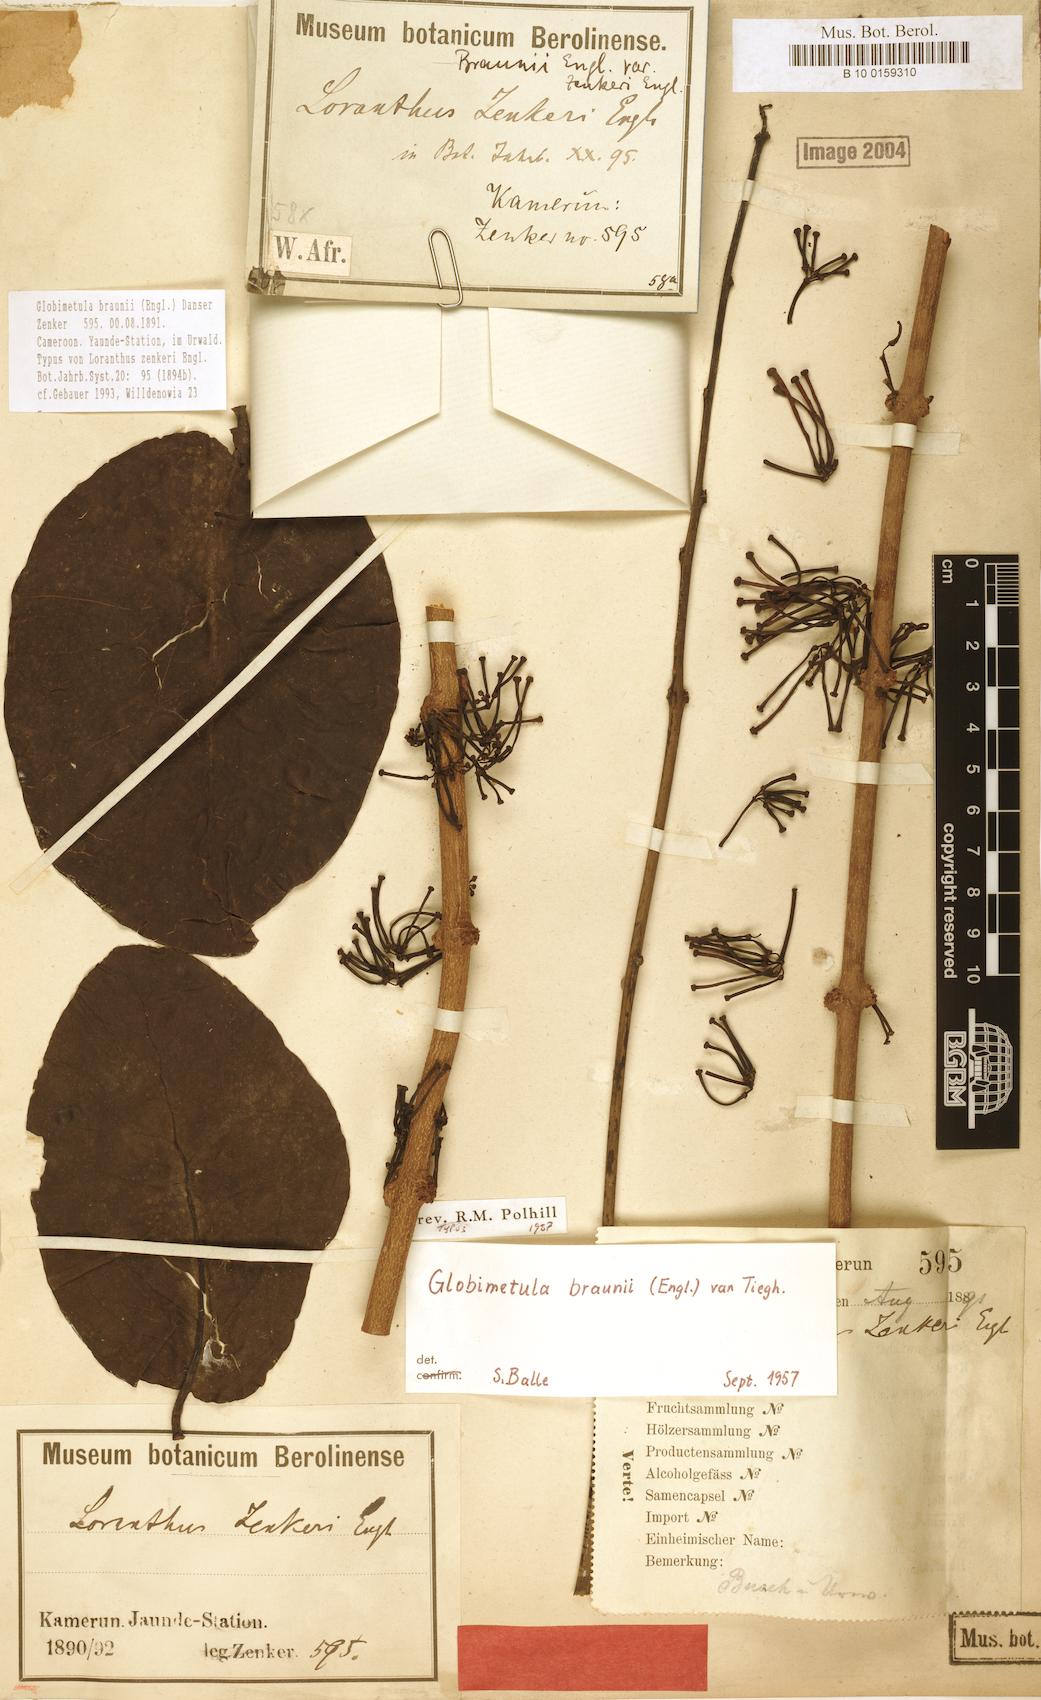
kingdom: Plantae
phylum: Tracheophyta
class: Magnoliopsida
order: Santalales
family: Loranthaceae
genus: Globimetula
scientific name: Globimetula braunii
